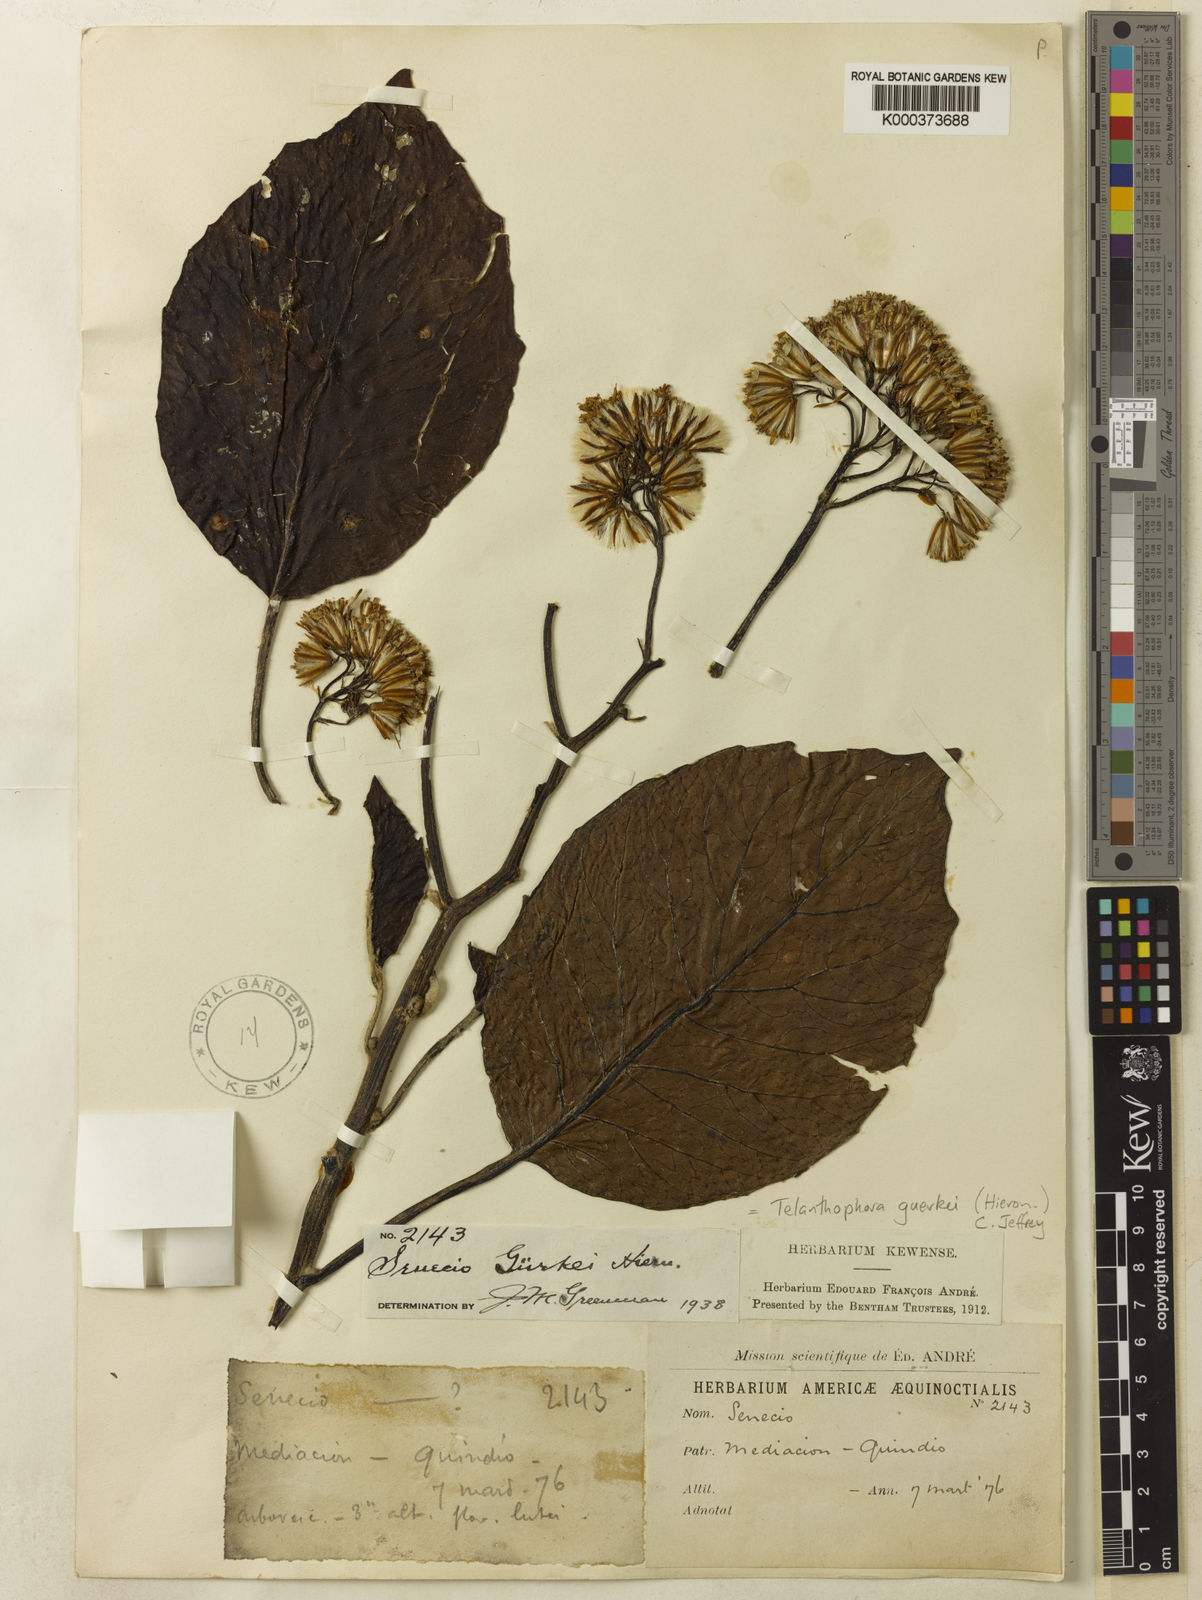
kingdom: Plantae
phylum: Tracheophyta
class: Magnoliopsida
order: Asterales
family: Asteraceae
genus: Telanthophora
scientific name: Telanthophora guerkei
